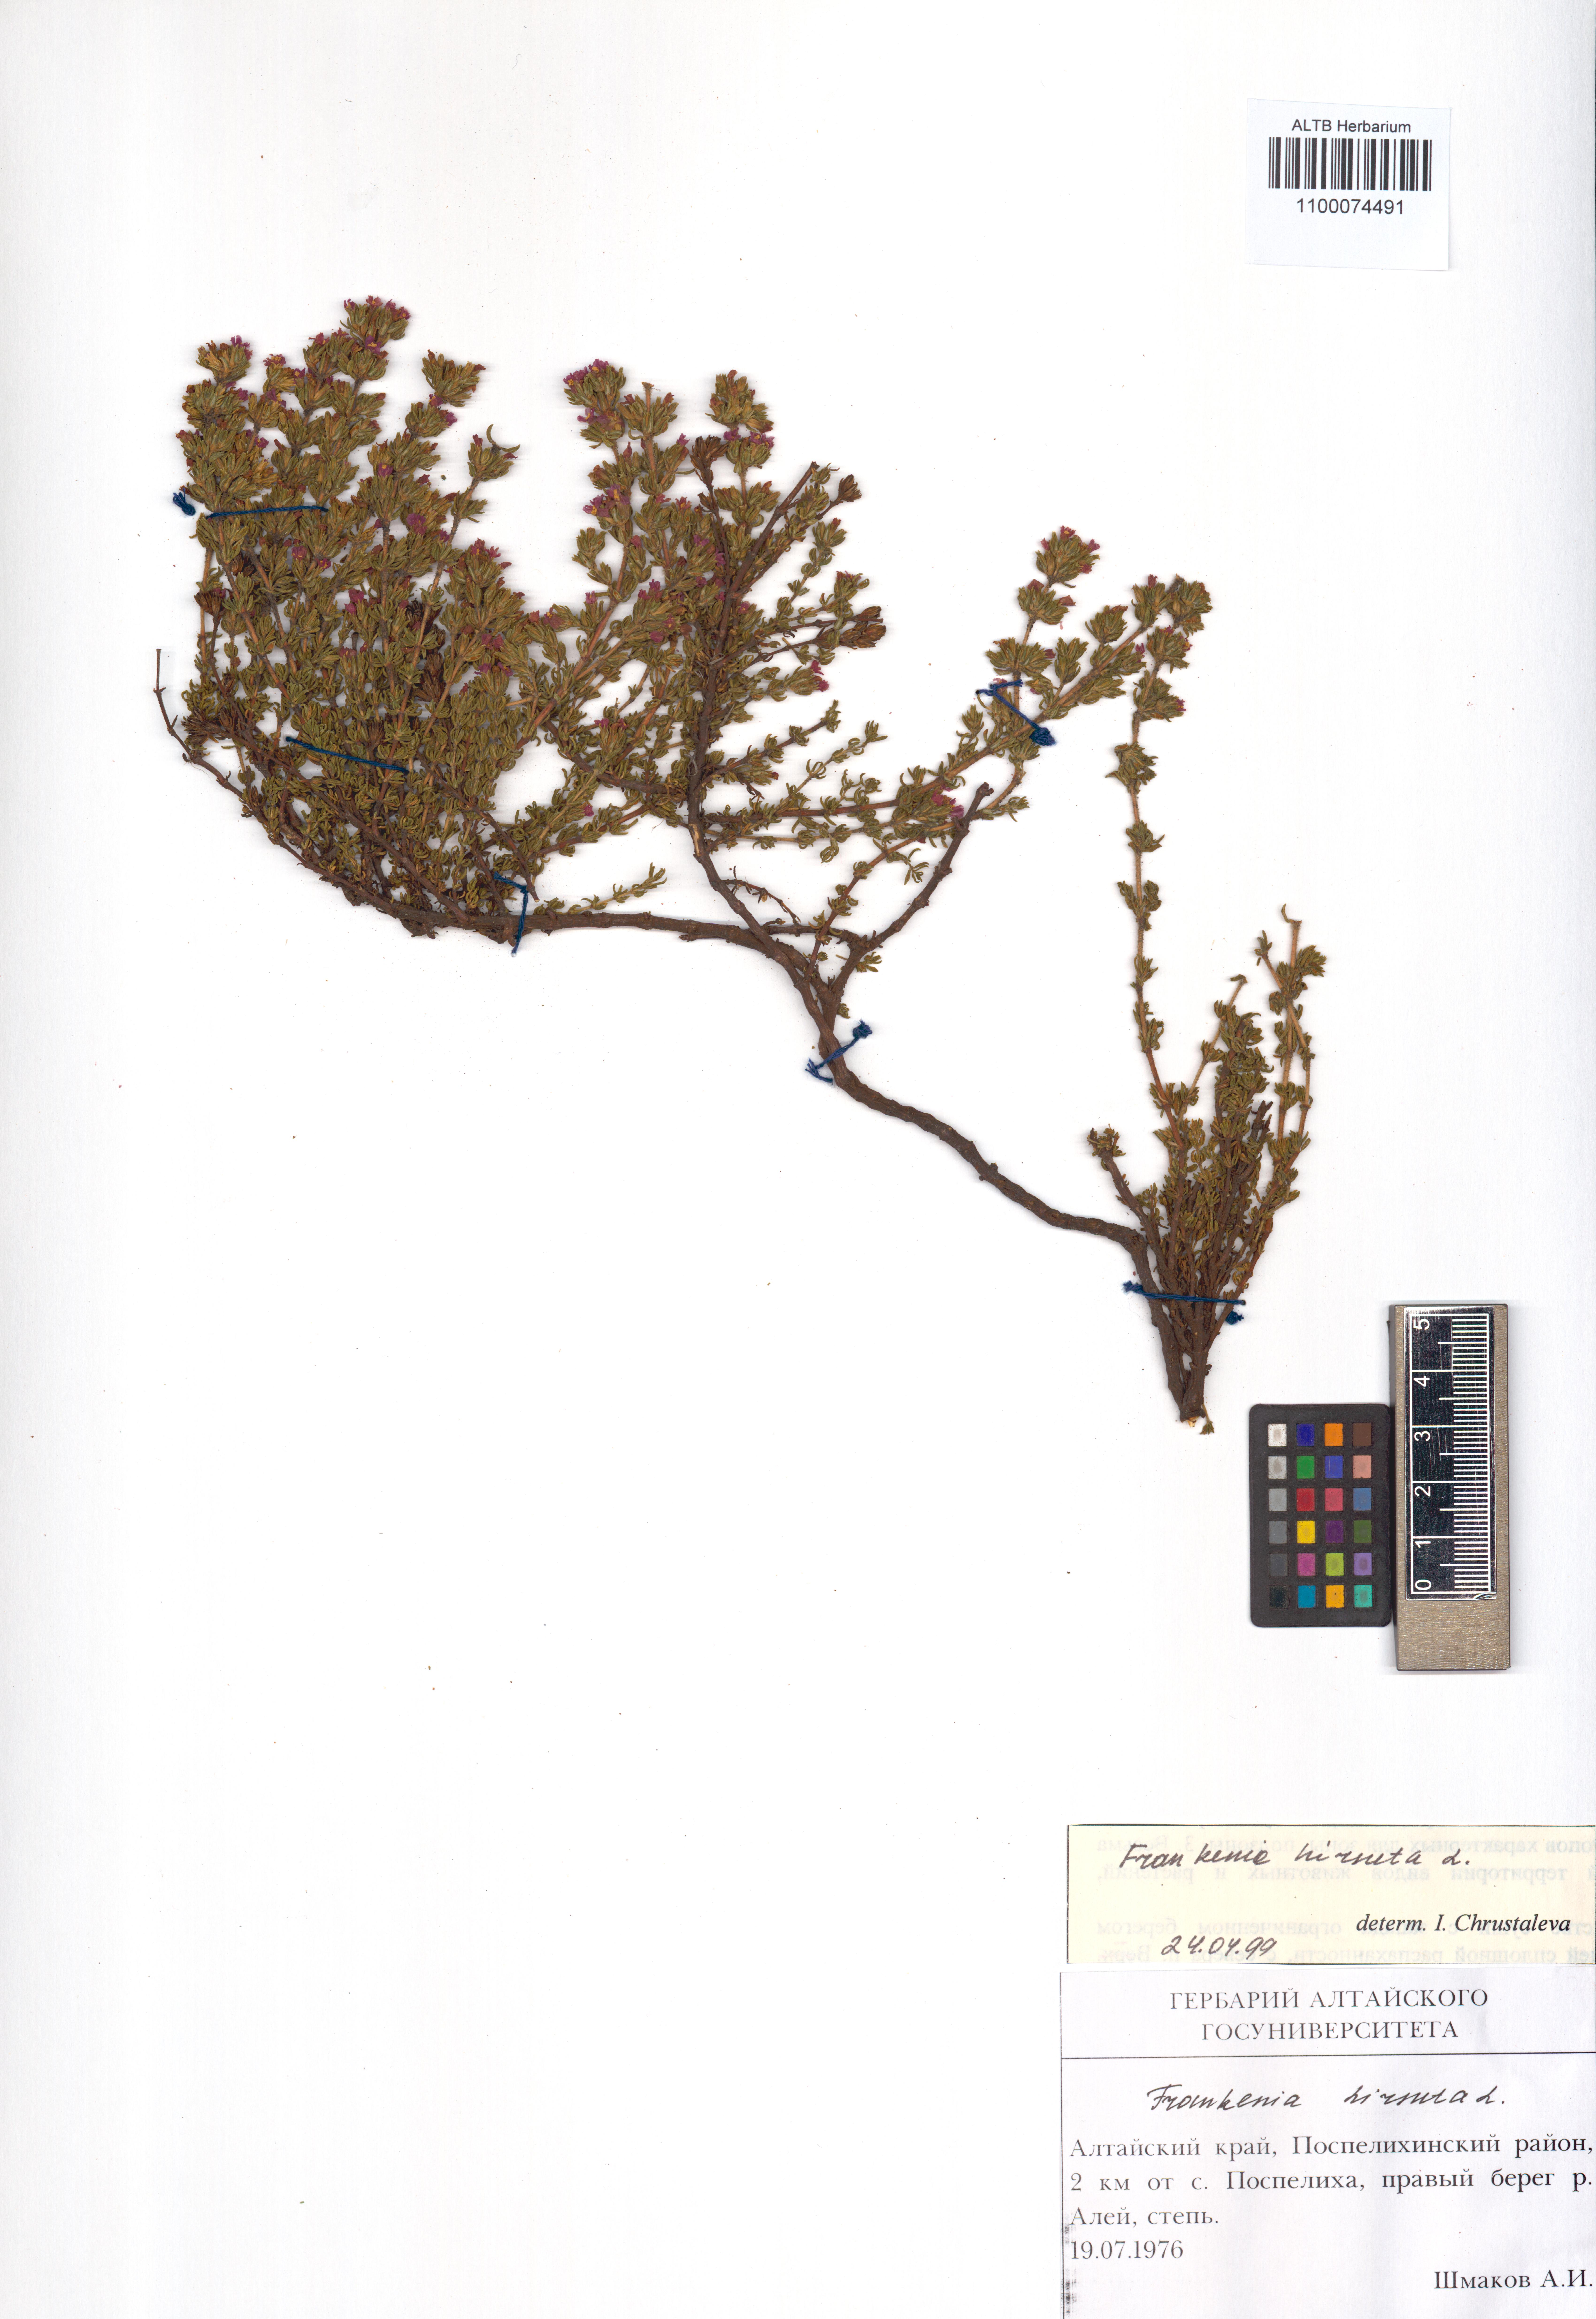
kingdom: Plantae
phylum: Tracheophyta
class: Magnoliopsida
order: Caryophyllales
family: Frankeniaceae
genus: Frankenia
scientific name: Frankenia hirsuta
